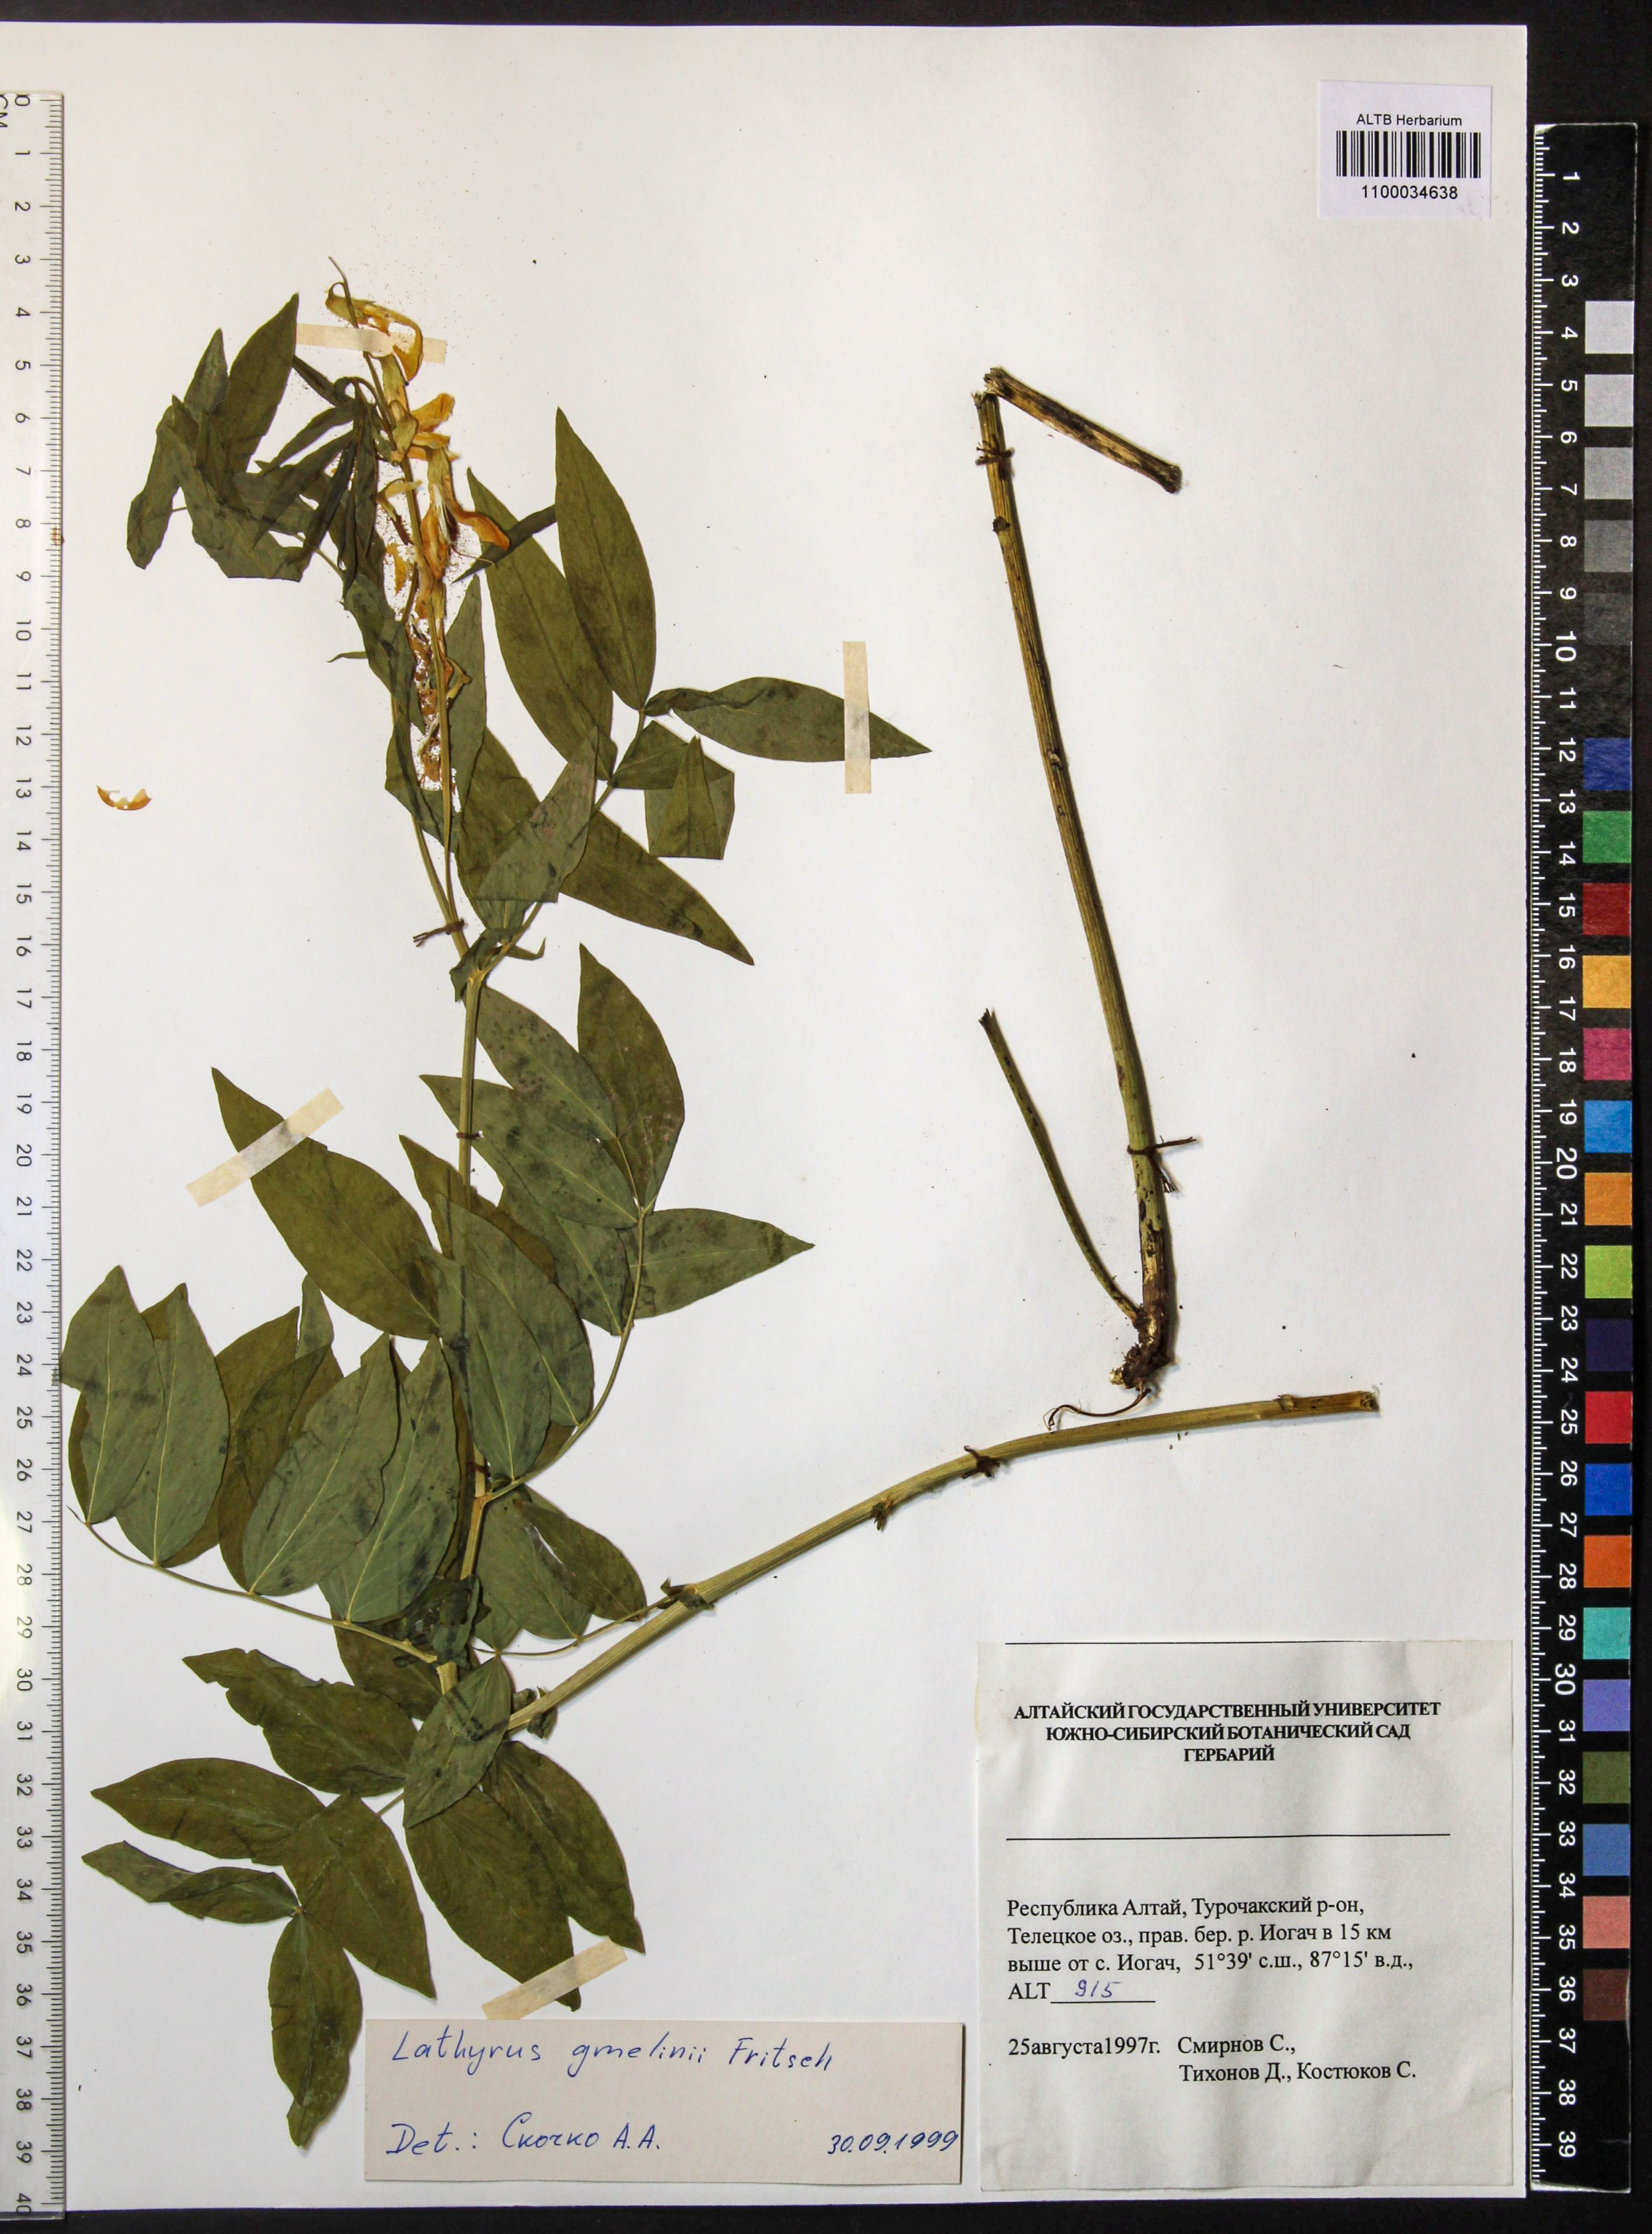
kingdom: Plantae
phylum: Tracheophyta
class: Magnoliopsida
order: Fabales
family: Fabaceae
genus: Lathyrus
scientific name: Lathyrus gmelinii
